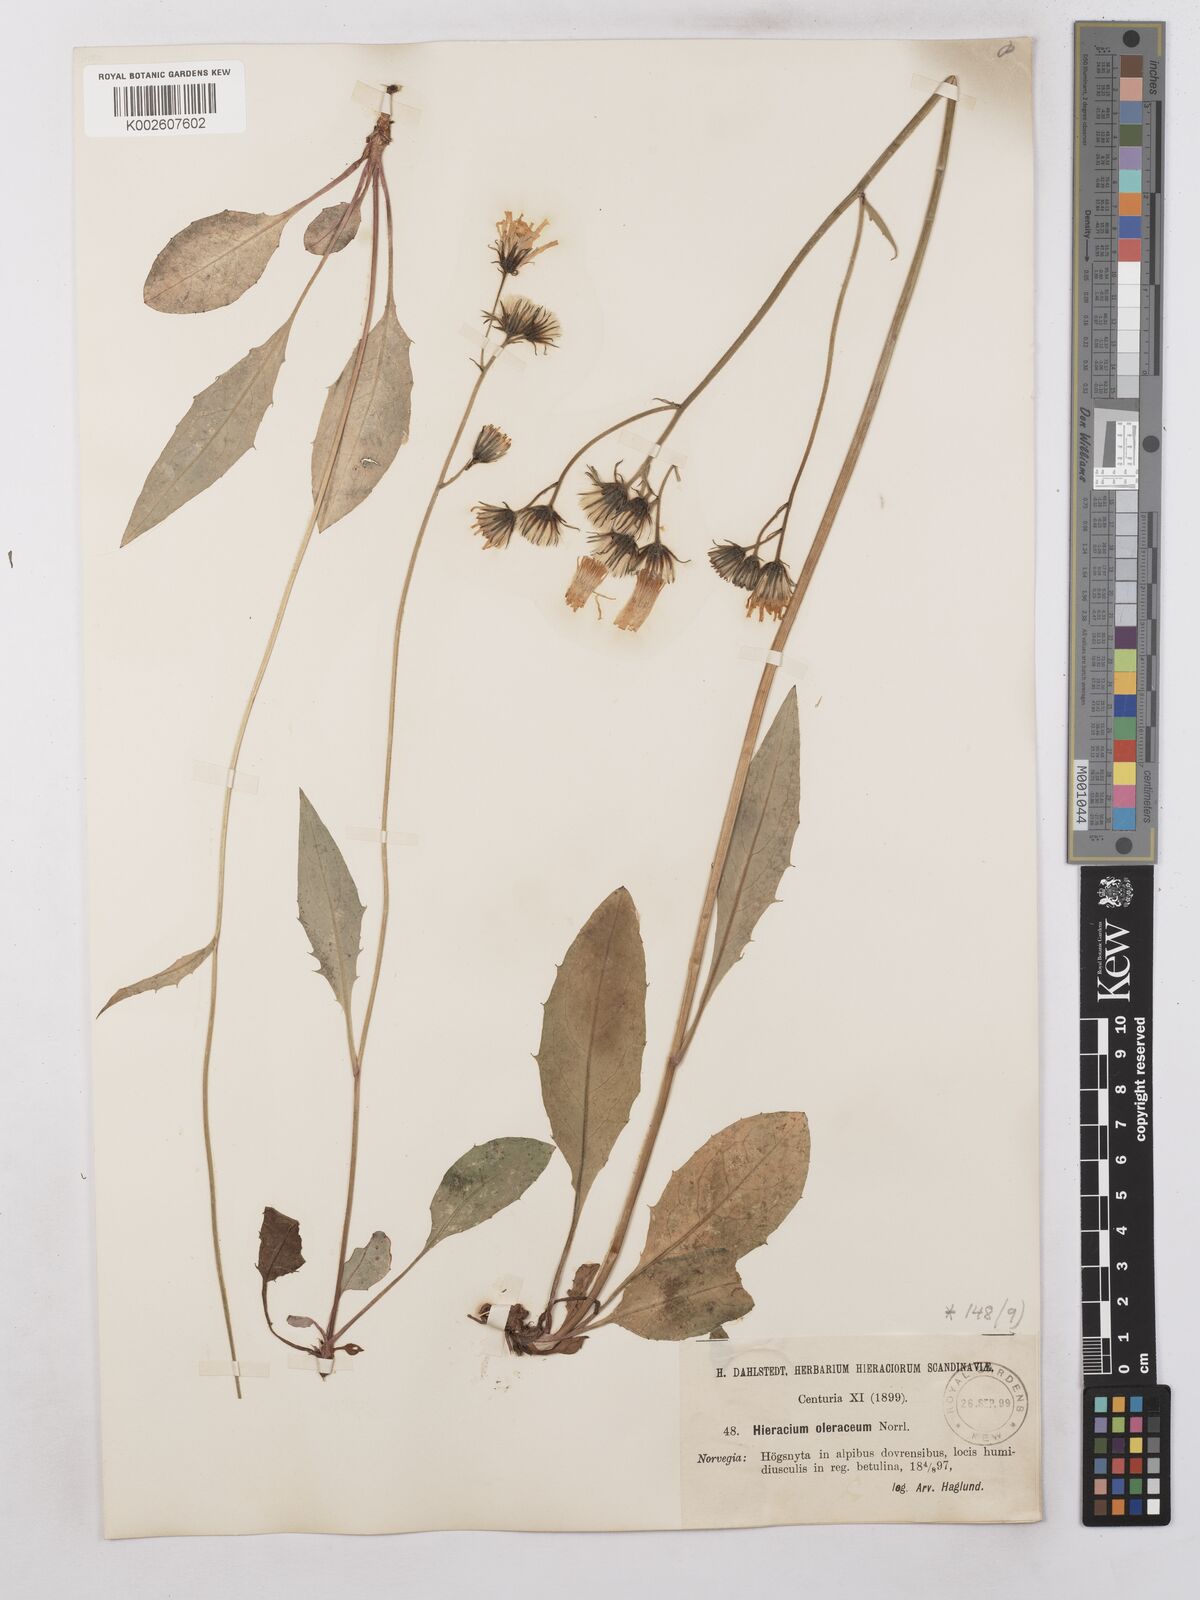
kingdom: Plantae
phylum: Tracheophyta
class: Magnoliopsida
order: Asterales
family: Asteraceae
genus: Hieracium
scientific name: Hieracium subramosum
